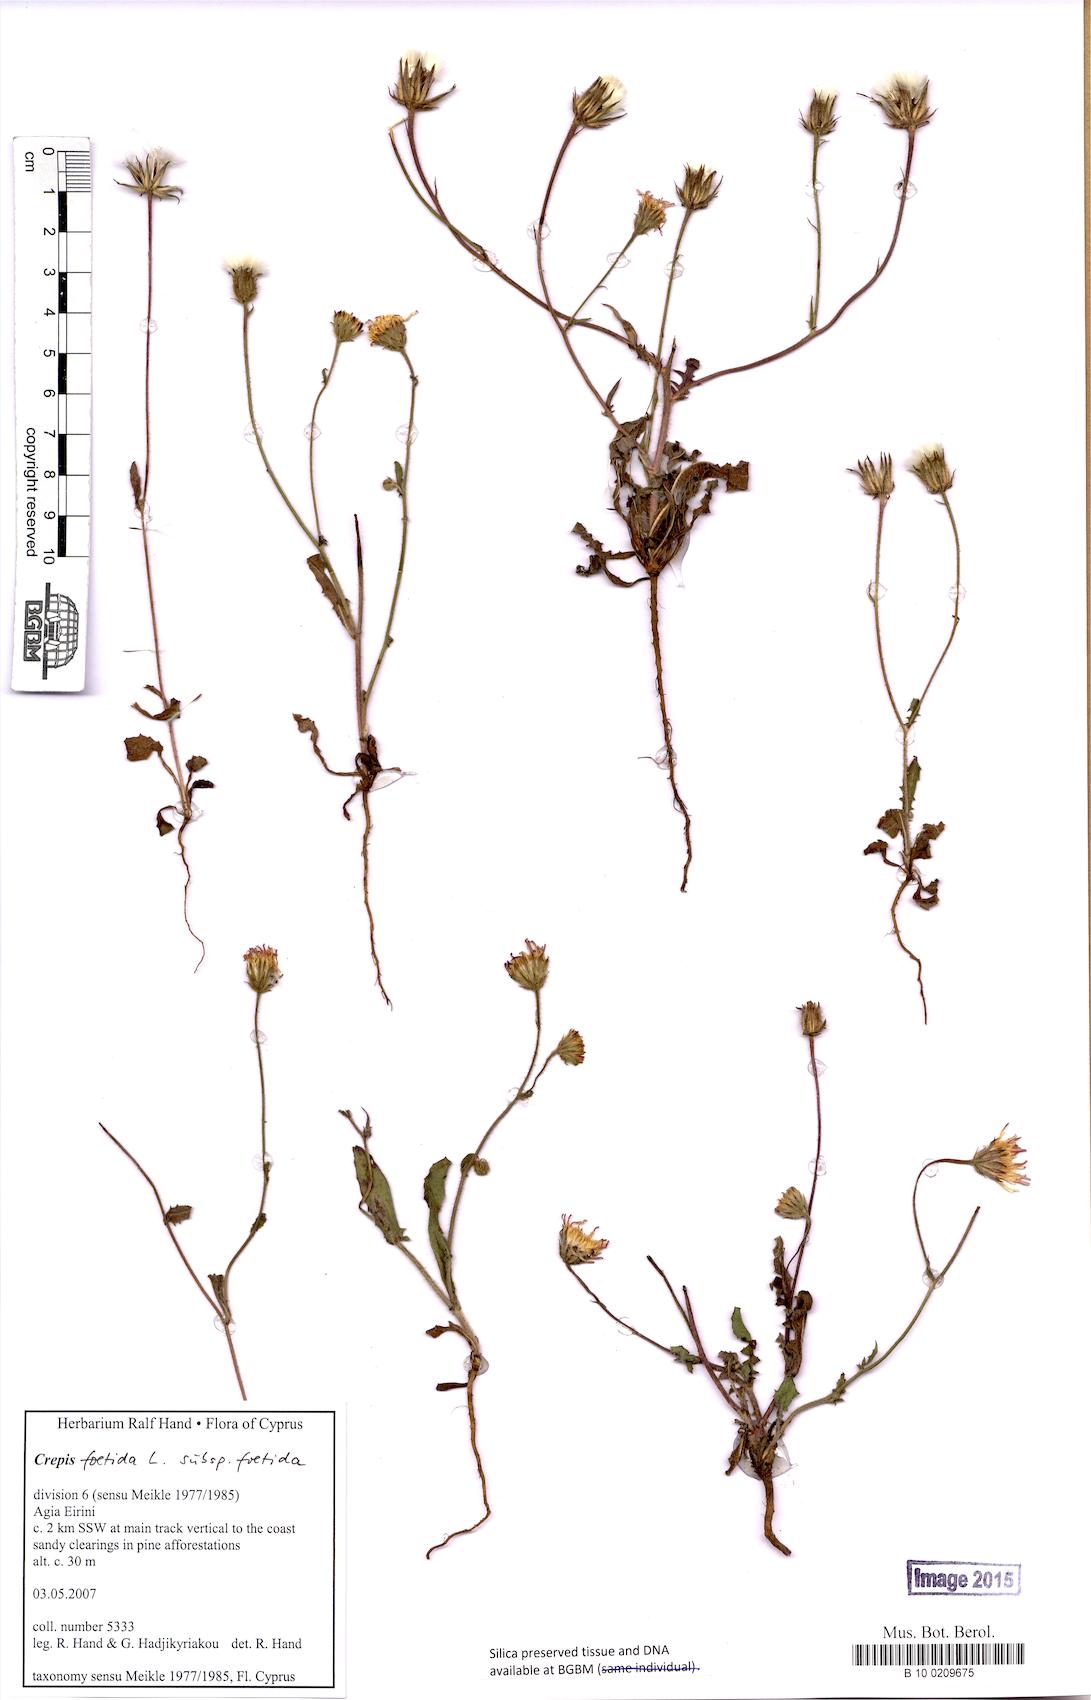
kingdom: Plantae
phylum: Tracheophyta
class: Magnoliopsida
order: Asterales
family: Asteraceae
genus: Crepis
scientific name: Crepis foetida
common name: Stinking hawk's-beard
